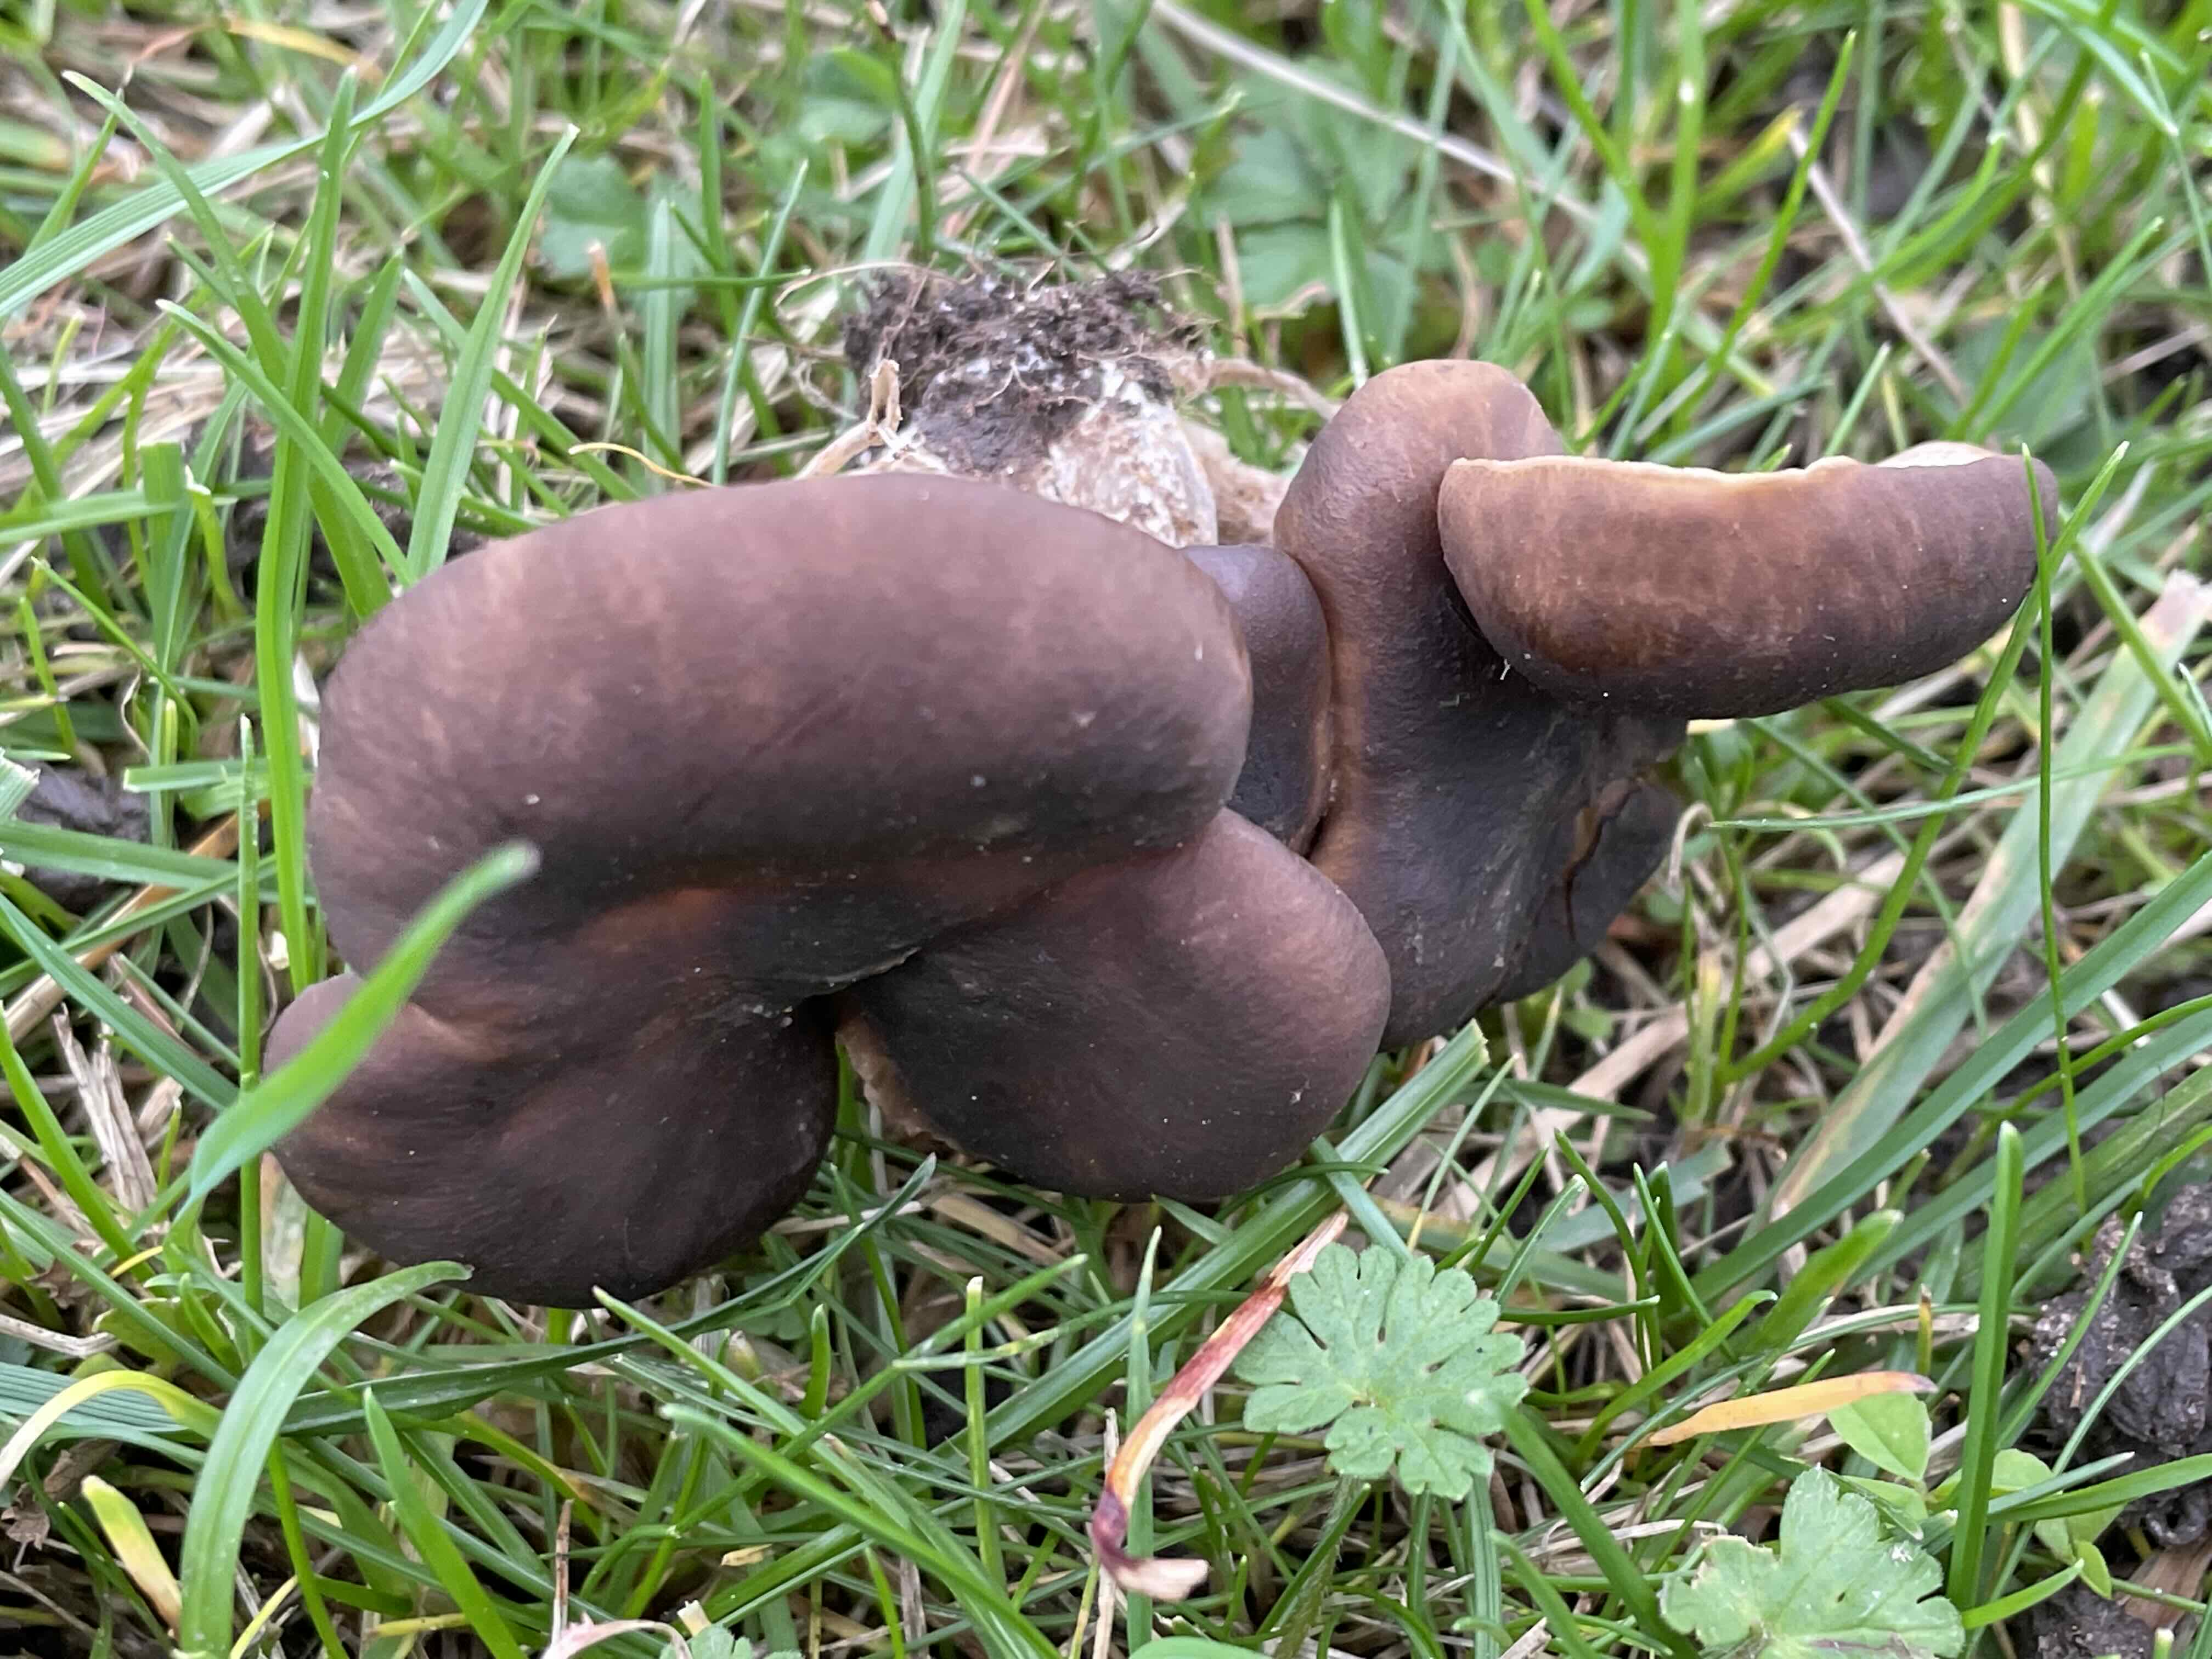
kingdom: Fungi
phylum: Basidiomycota
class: Agaricomycetes
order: Agaricales
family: Lyophyllaceae
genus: Lyophyllum
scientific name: Lyophyllum decastes
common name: røggrå gråblad
